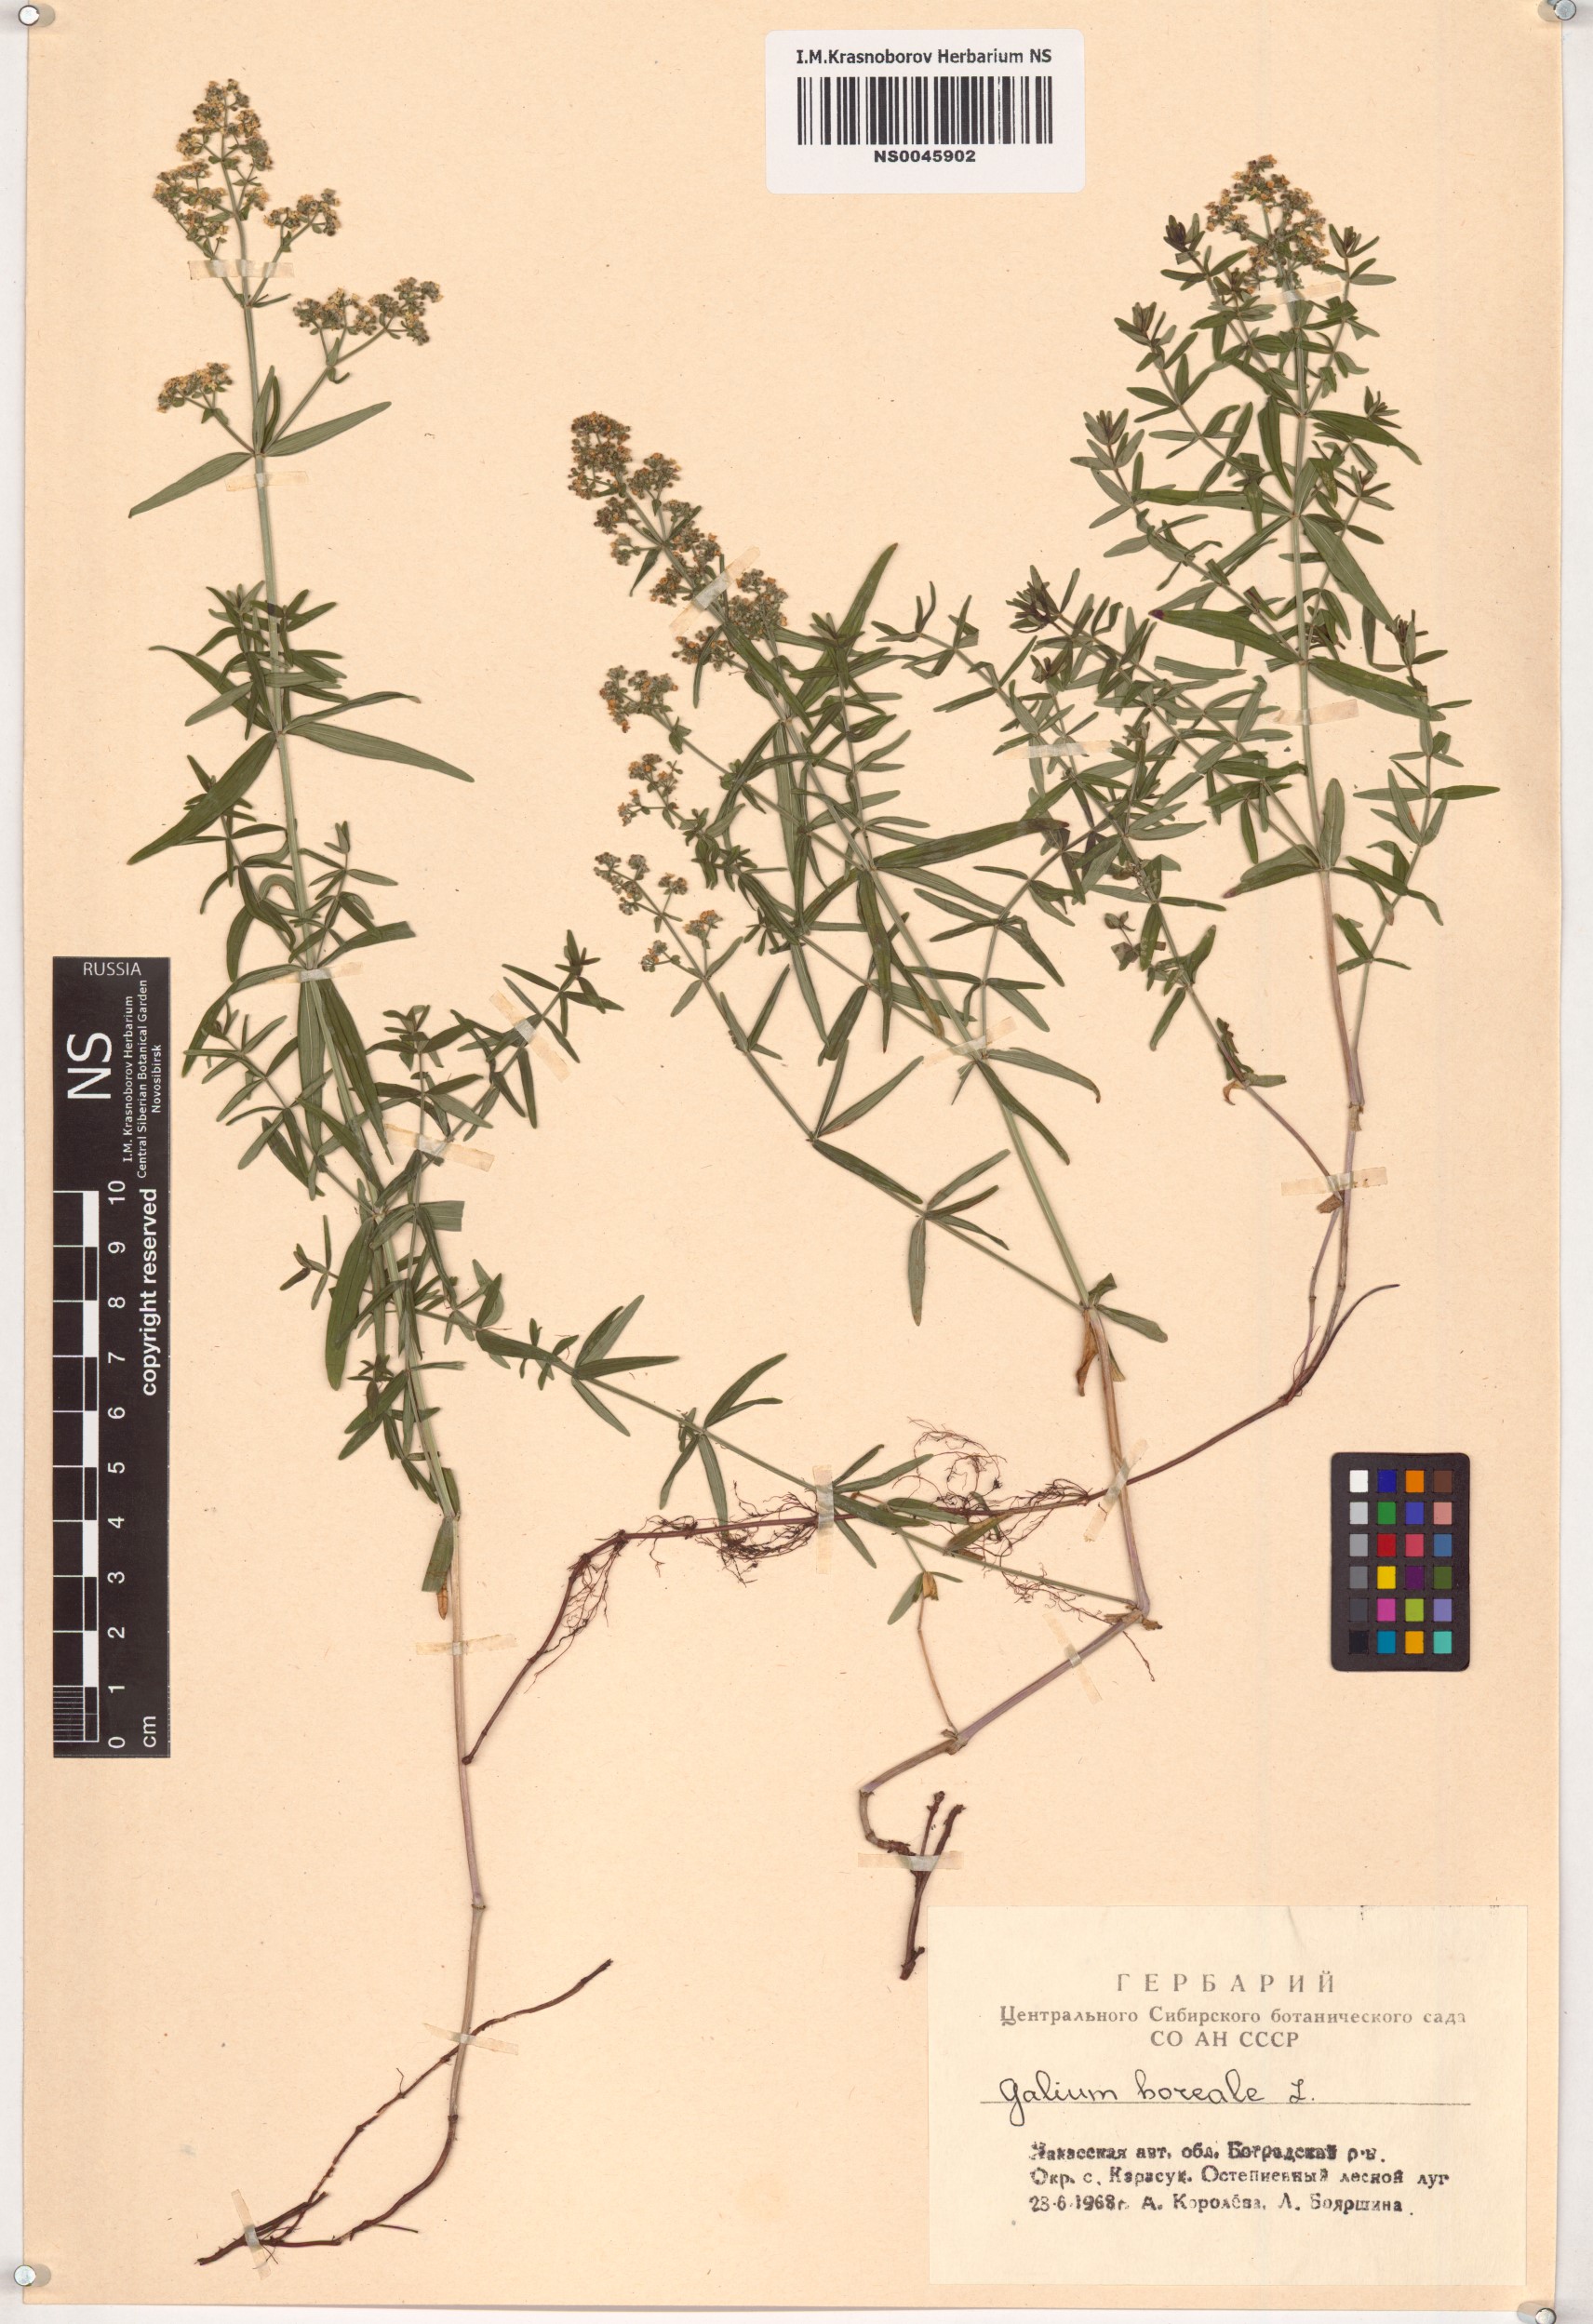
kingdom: Plantae
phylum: Tracheophyta
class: Magnoliopsida
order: Gentianales
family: Rubiaceae
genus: Galium
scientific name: Galium boreale
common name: Northern bedstraw
